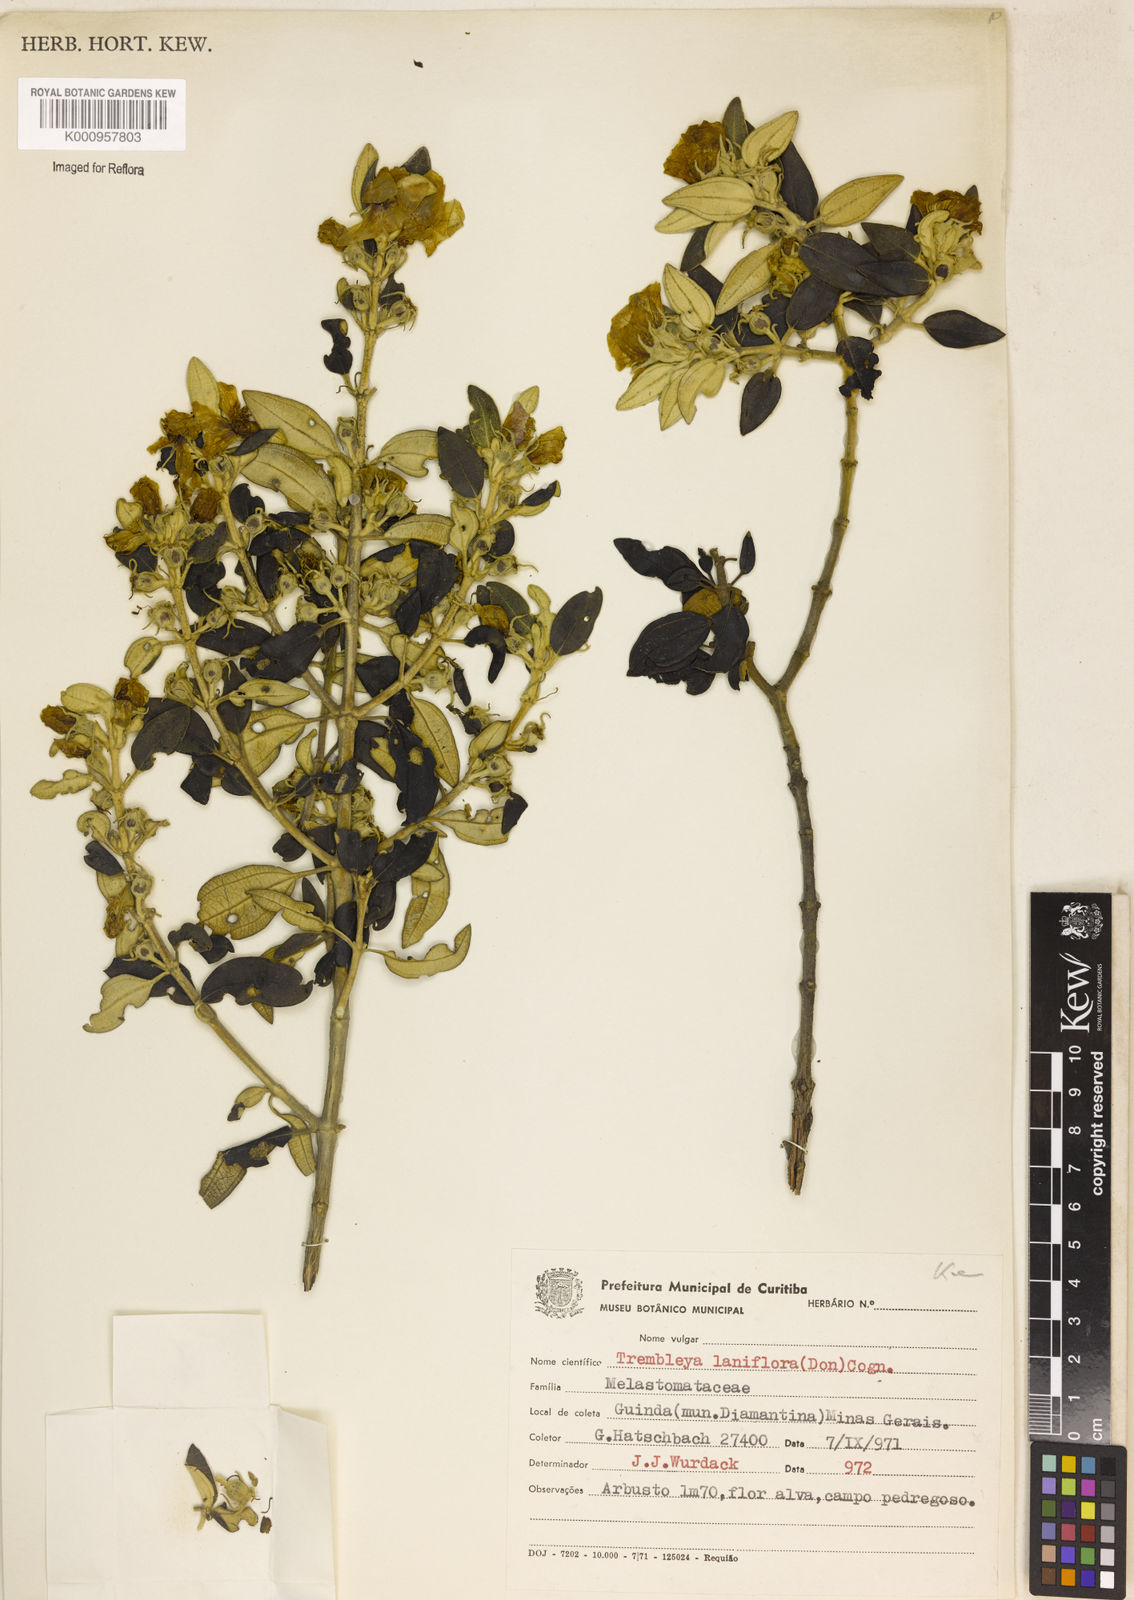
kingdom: Plantae
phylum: Tracheophyta
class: Magnoliopsida
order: Myrtales
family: Melastomataceae
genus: Microlicia
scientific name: Microlicia laniflora
